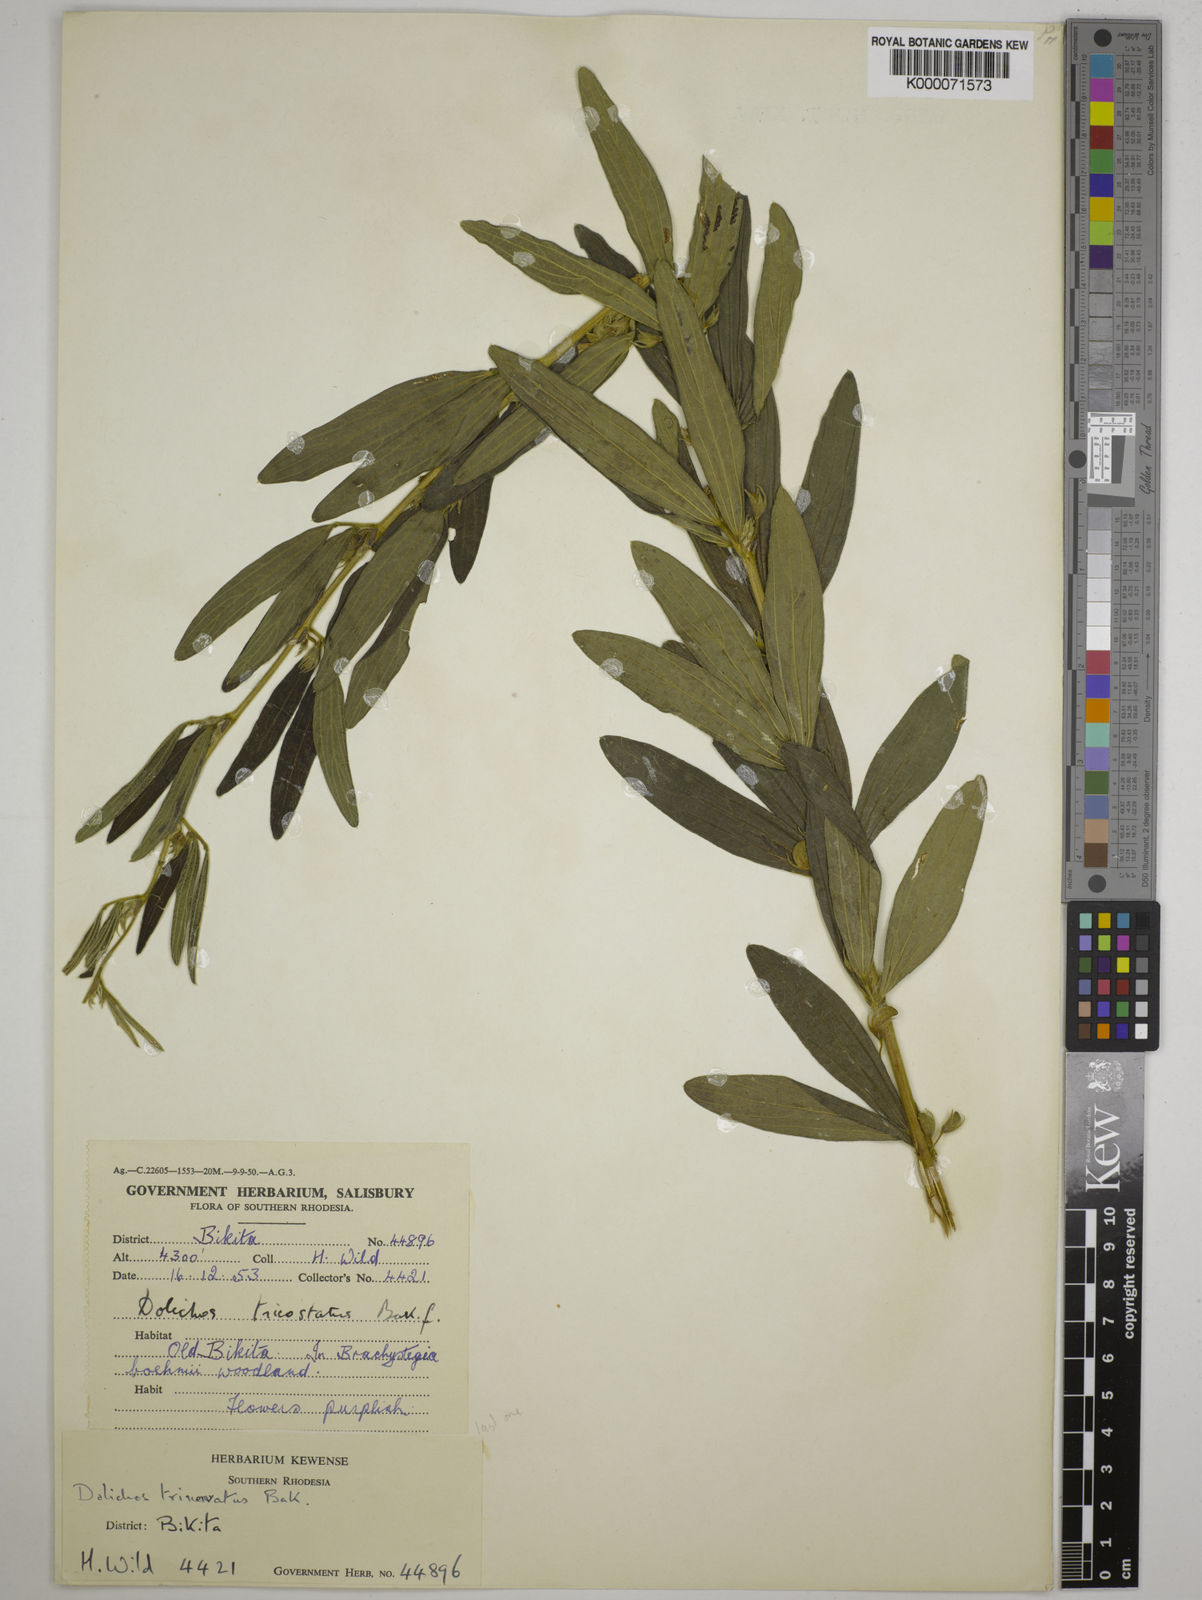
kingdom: Plantae
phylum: Tracheophyta
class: Magnoliopsida
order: Fabales
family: Fabaceae
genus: Dolichos
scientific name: Dolichos trinervatus
